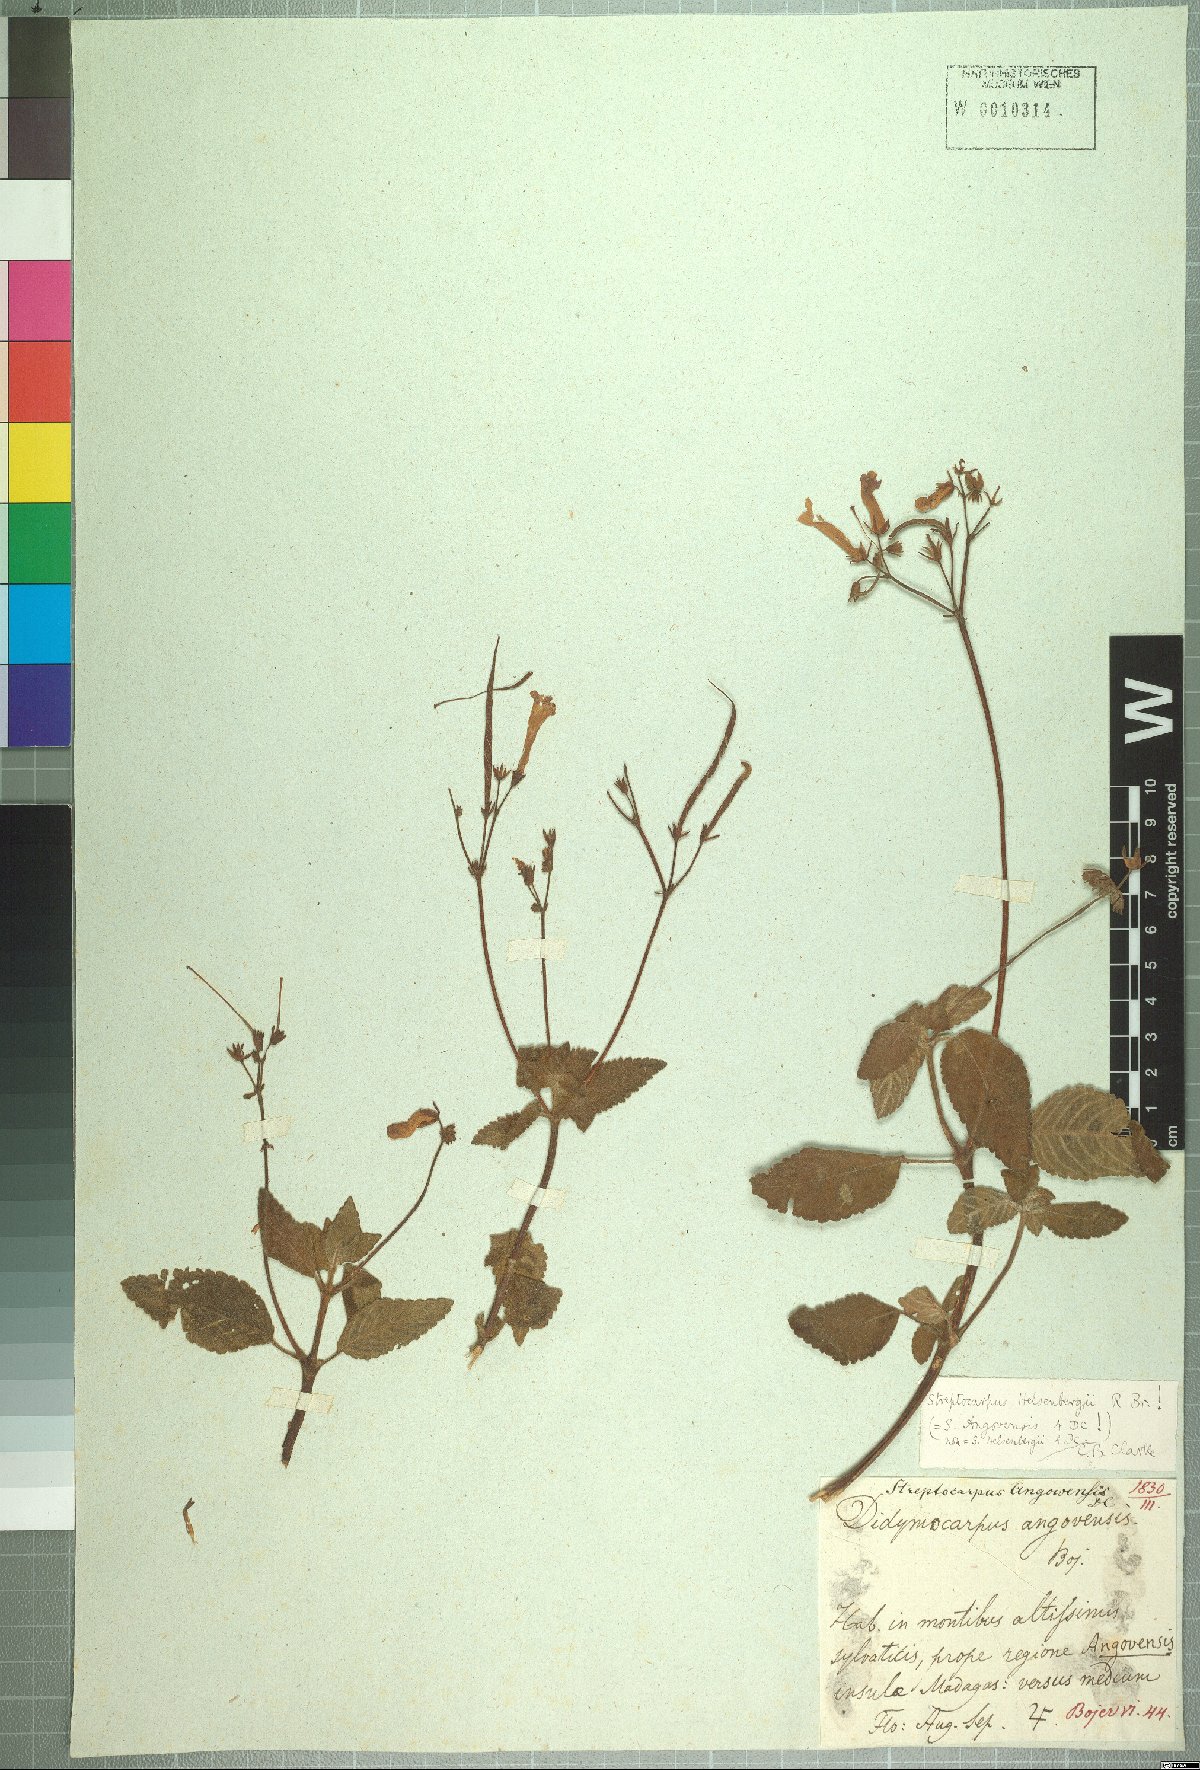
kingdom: Plantae
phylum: Tracheophyta
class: Magnoliopsida
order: Lamiales
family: Gesneriaceae
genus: Streptocarpus
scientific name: Streptocarpus hilsenbergii
